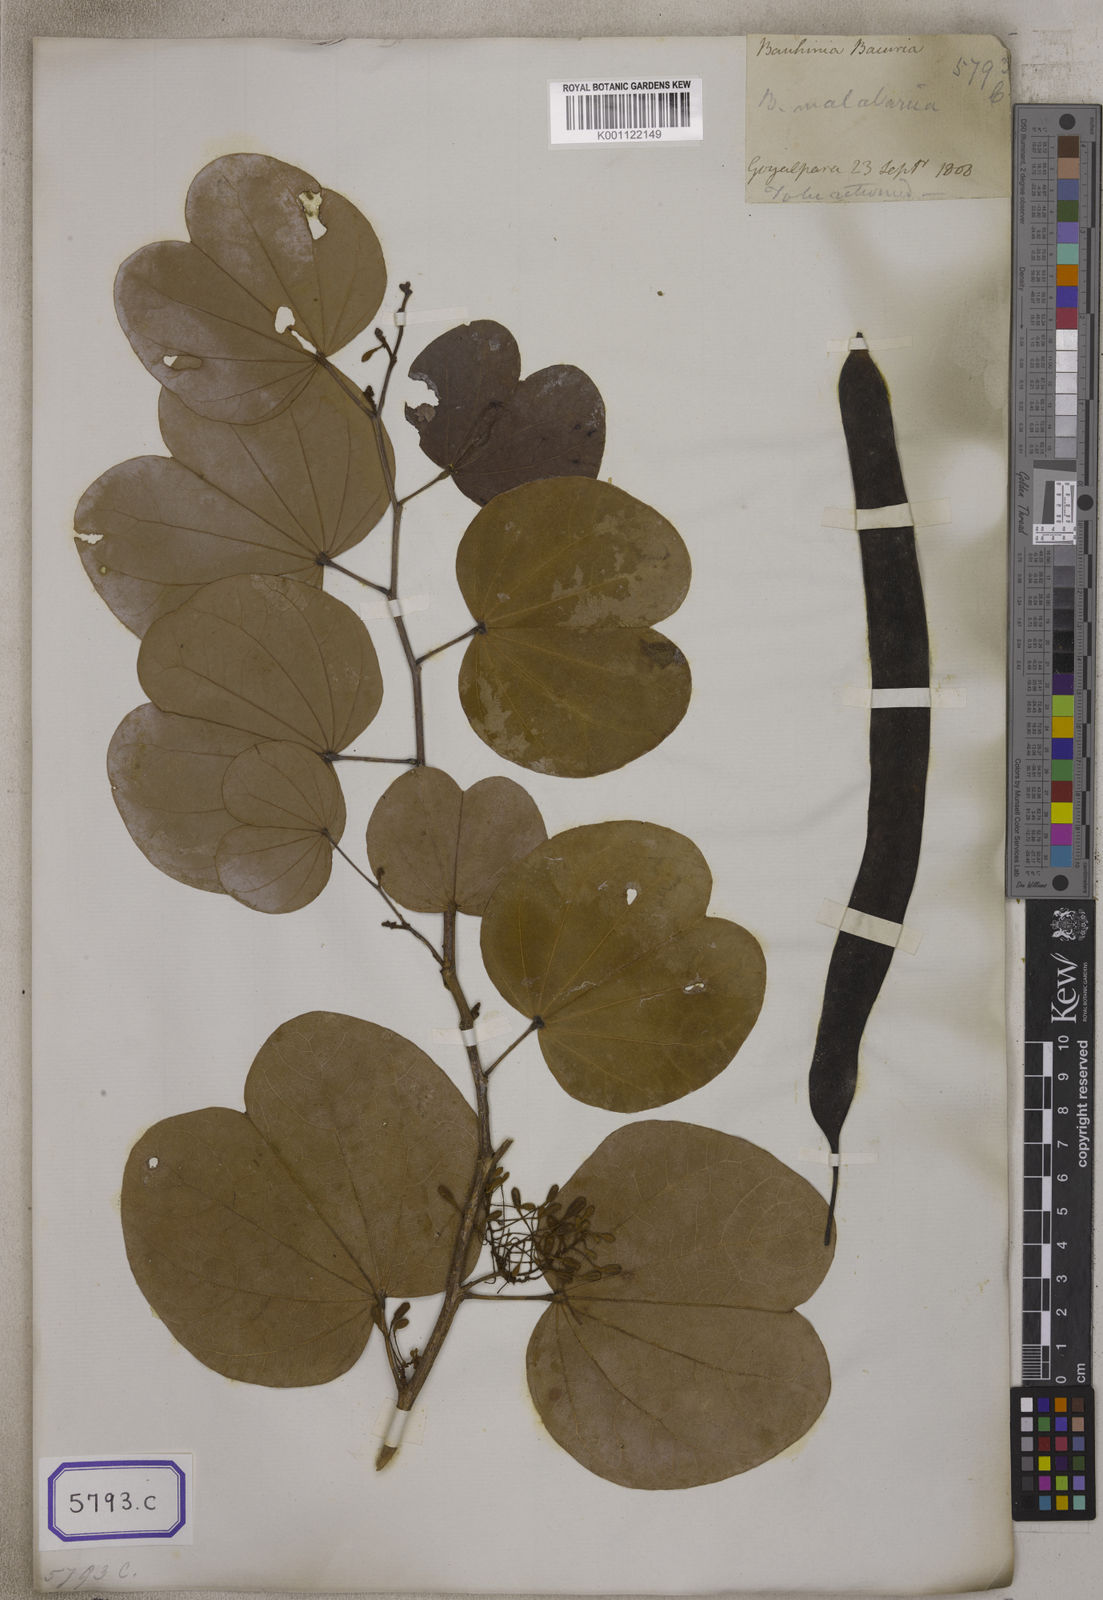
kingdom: Plantae
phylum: Tracheophyta
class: Magnoliopsida
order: Fabales
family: Fabaceae
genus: Piliostigma
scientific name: Piliostigma malabaricum
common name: Malabar bauhinia
